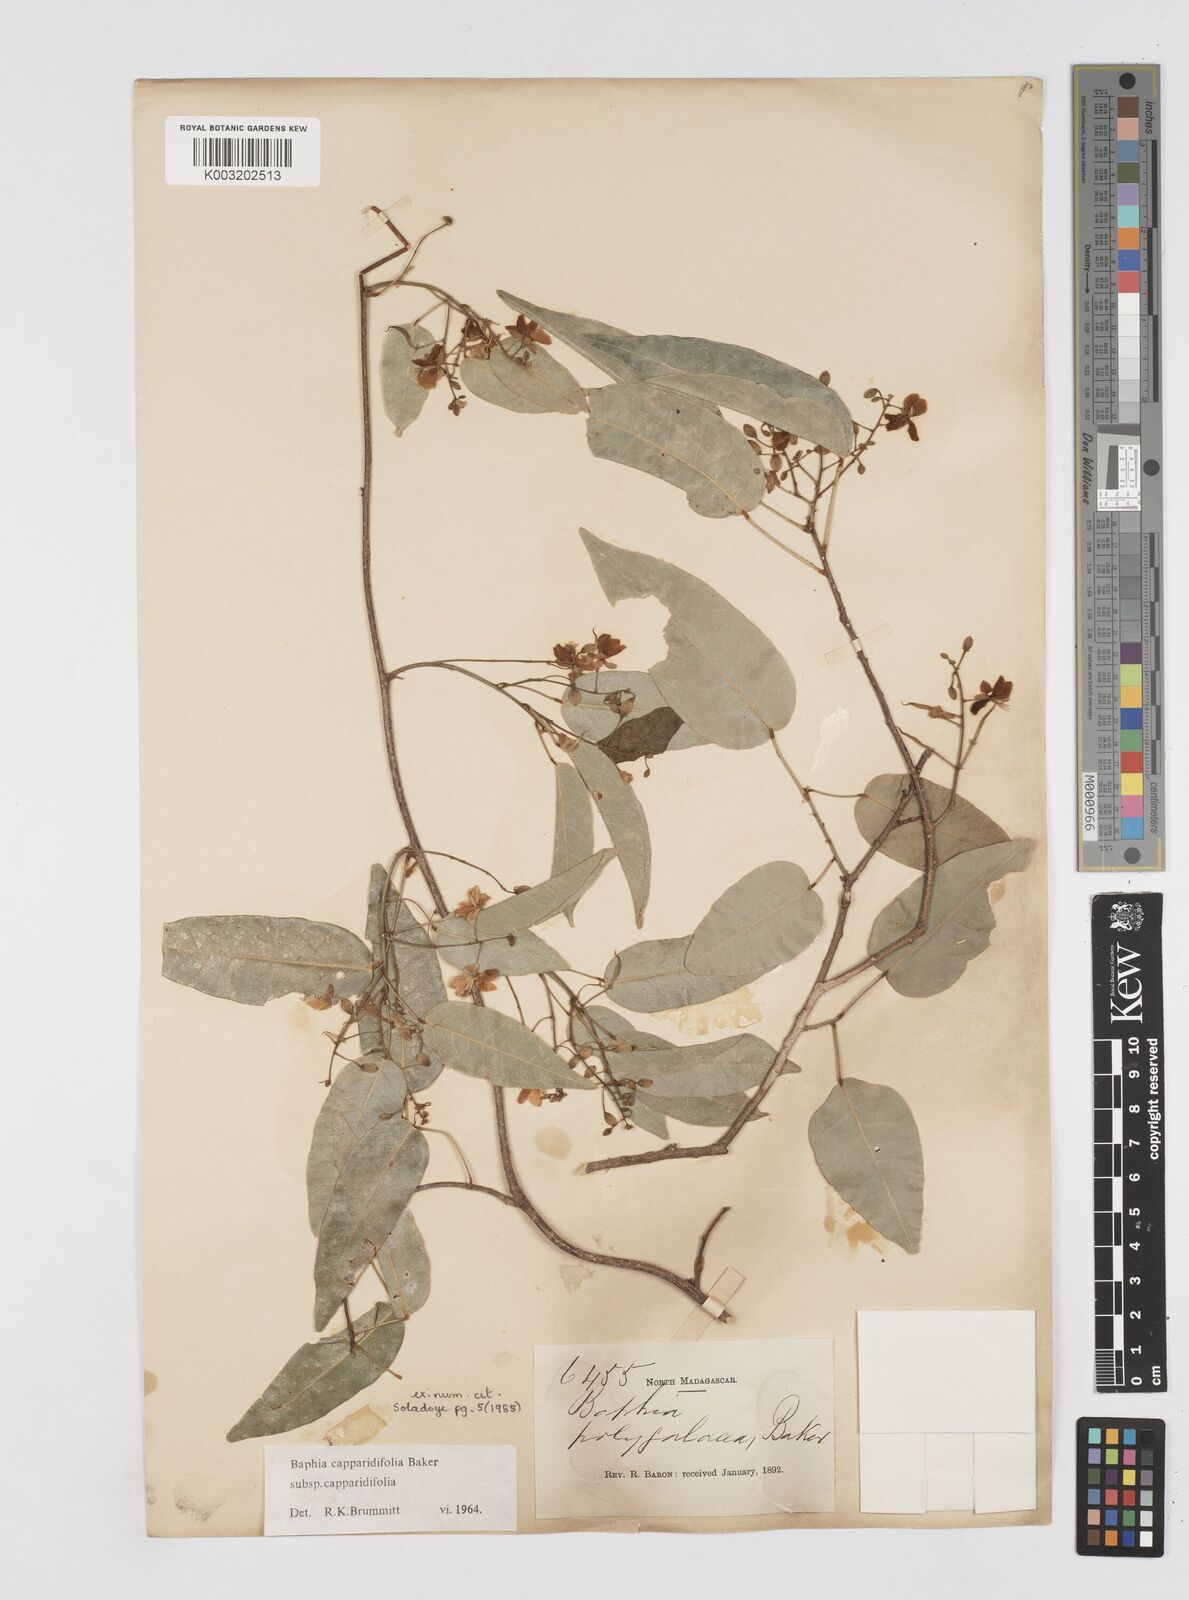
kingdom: Plantae
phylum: Tracheophyta
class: Magnoliopsida
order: Fabales
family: Fabaceae
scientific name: Fabaceae
